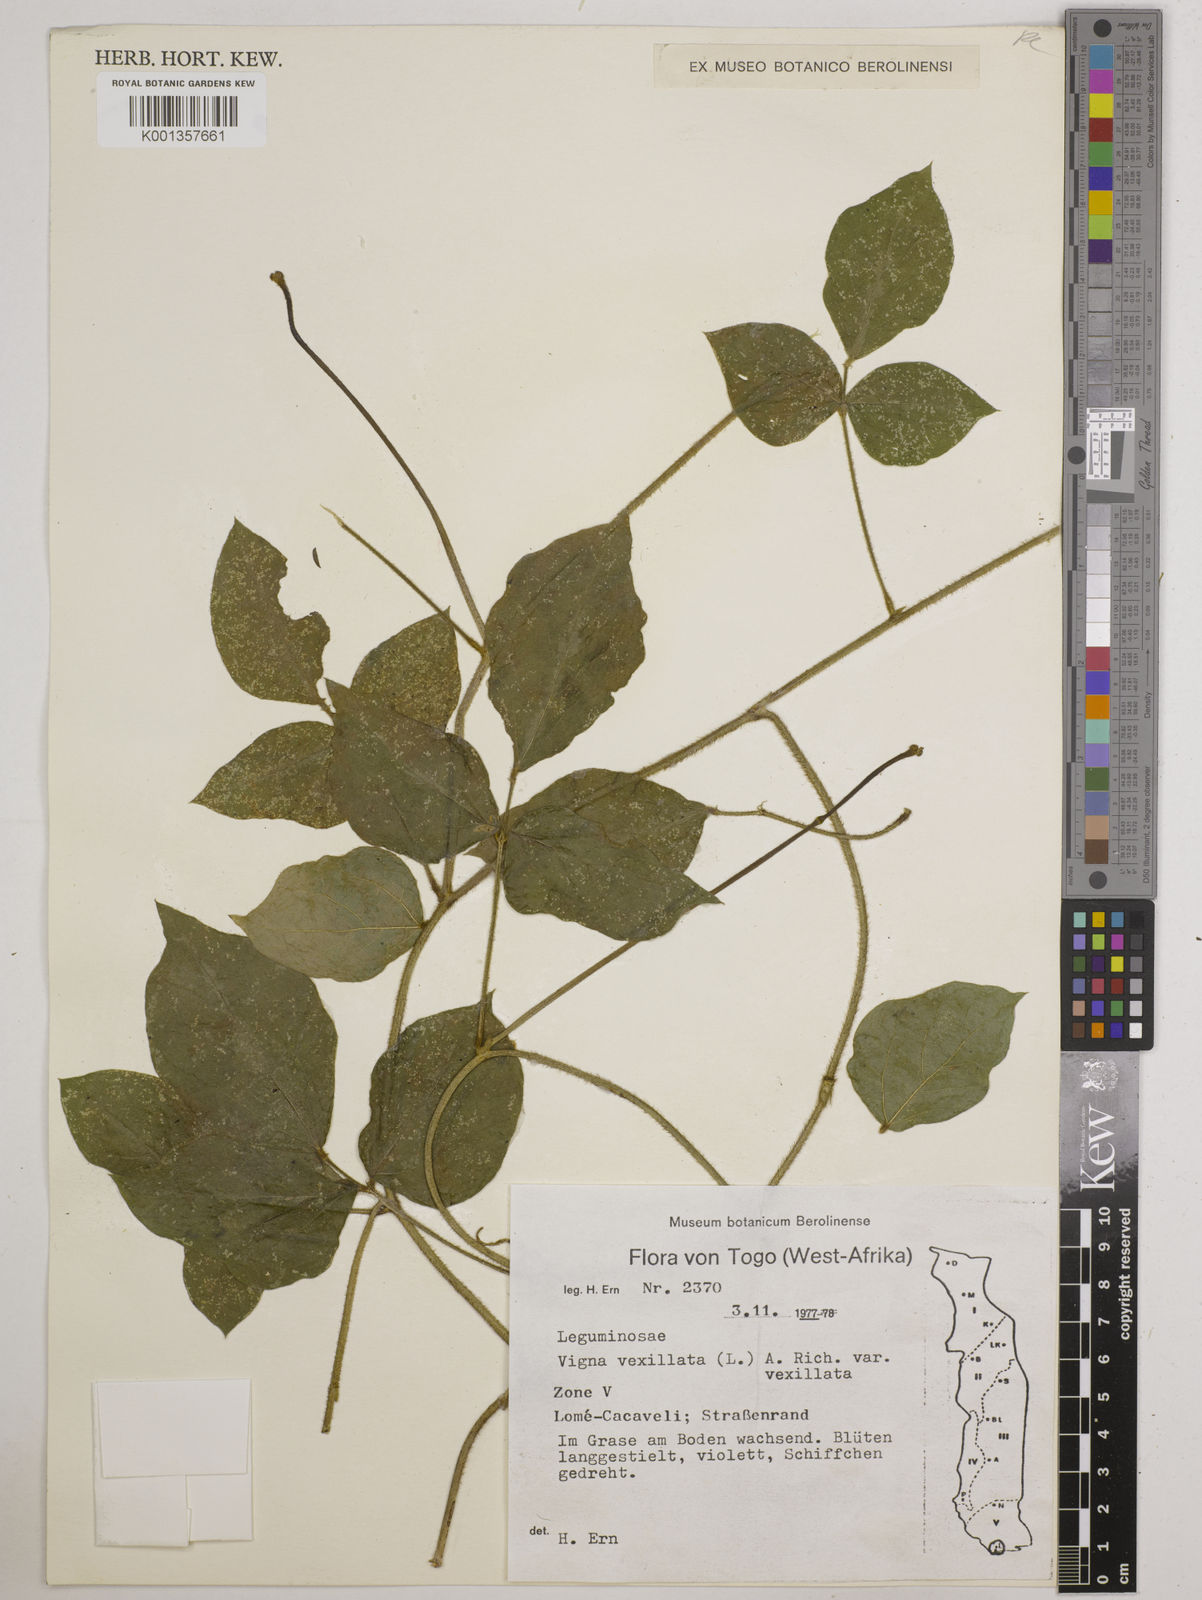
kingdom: Plantae
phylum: Tracheophyta
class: Magnoliopsida
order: Fabales
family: Fabaceae
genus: Vigna
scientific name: Vigna vexillata
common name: Zombi pea
